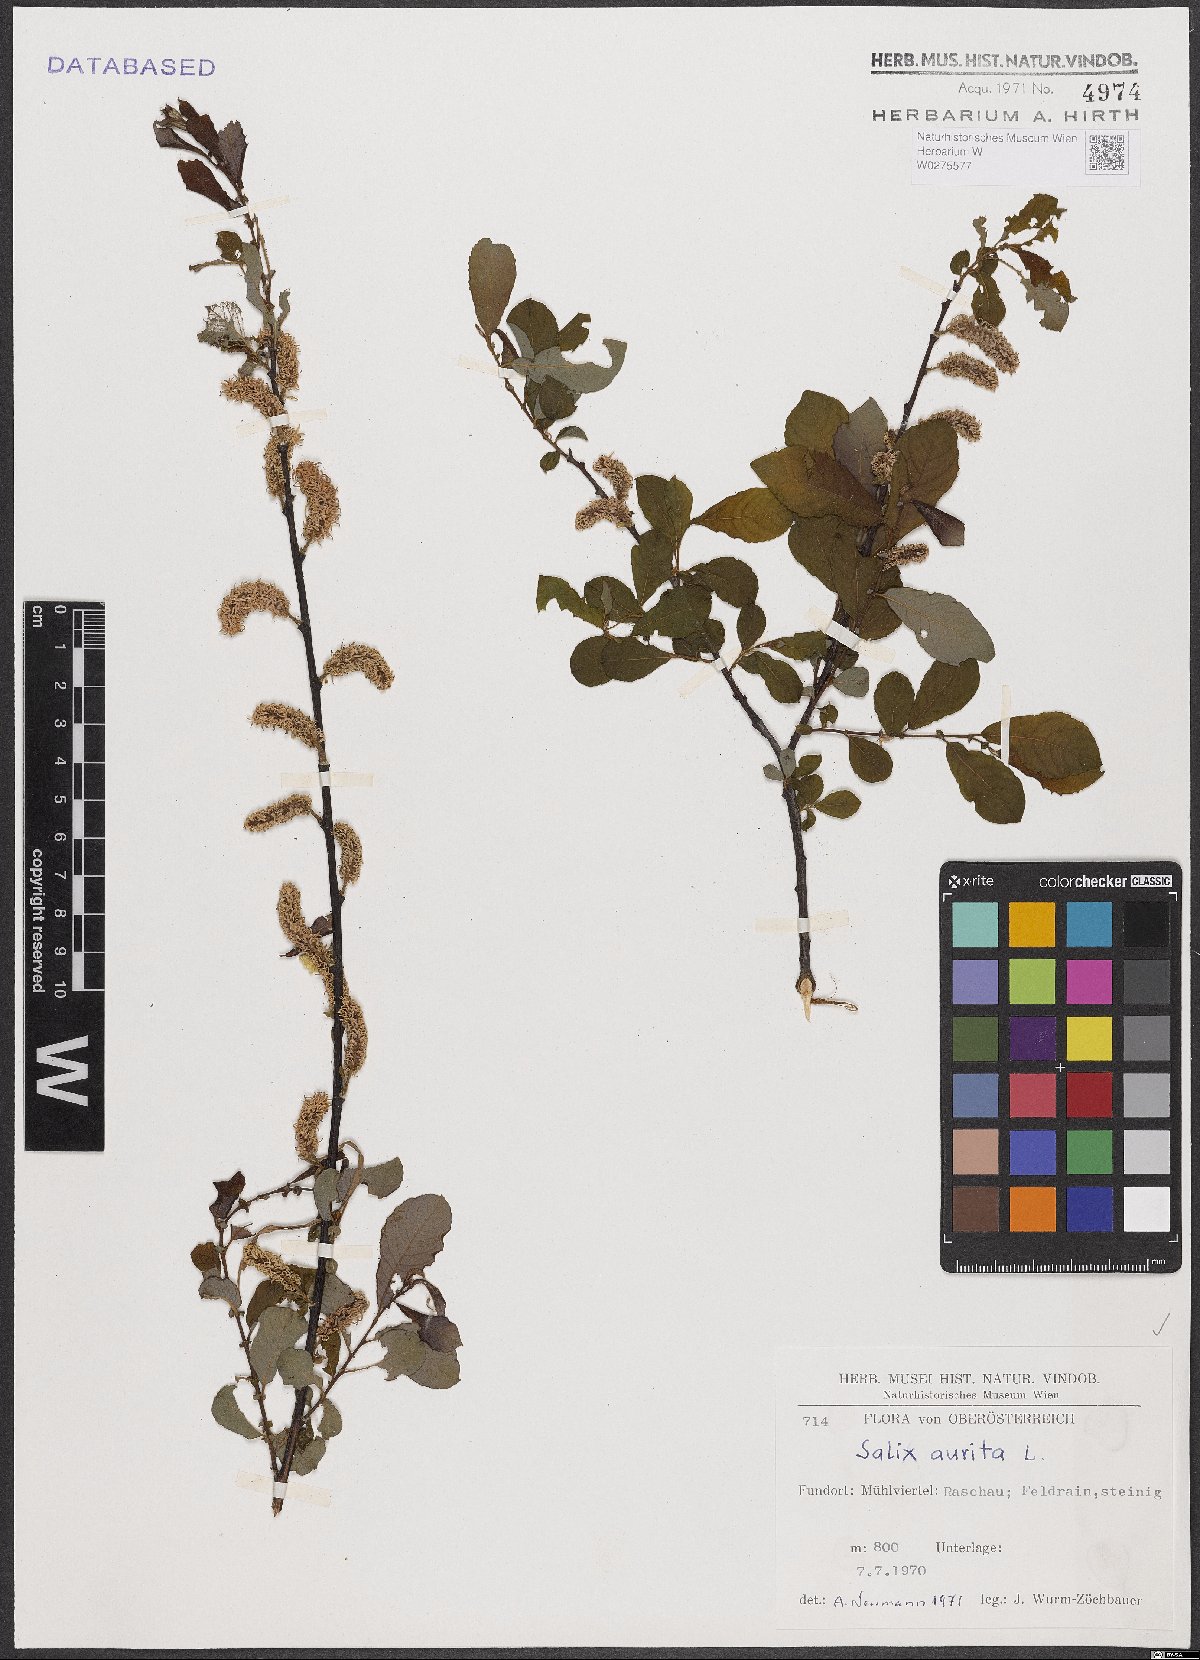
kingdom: Plantae
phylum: Tracheophyta
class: Magnoliopsida
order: Malpighiales
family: Salicaceae
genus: Salix
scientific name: Salix aurita
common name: Eared willow
